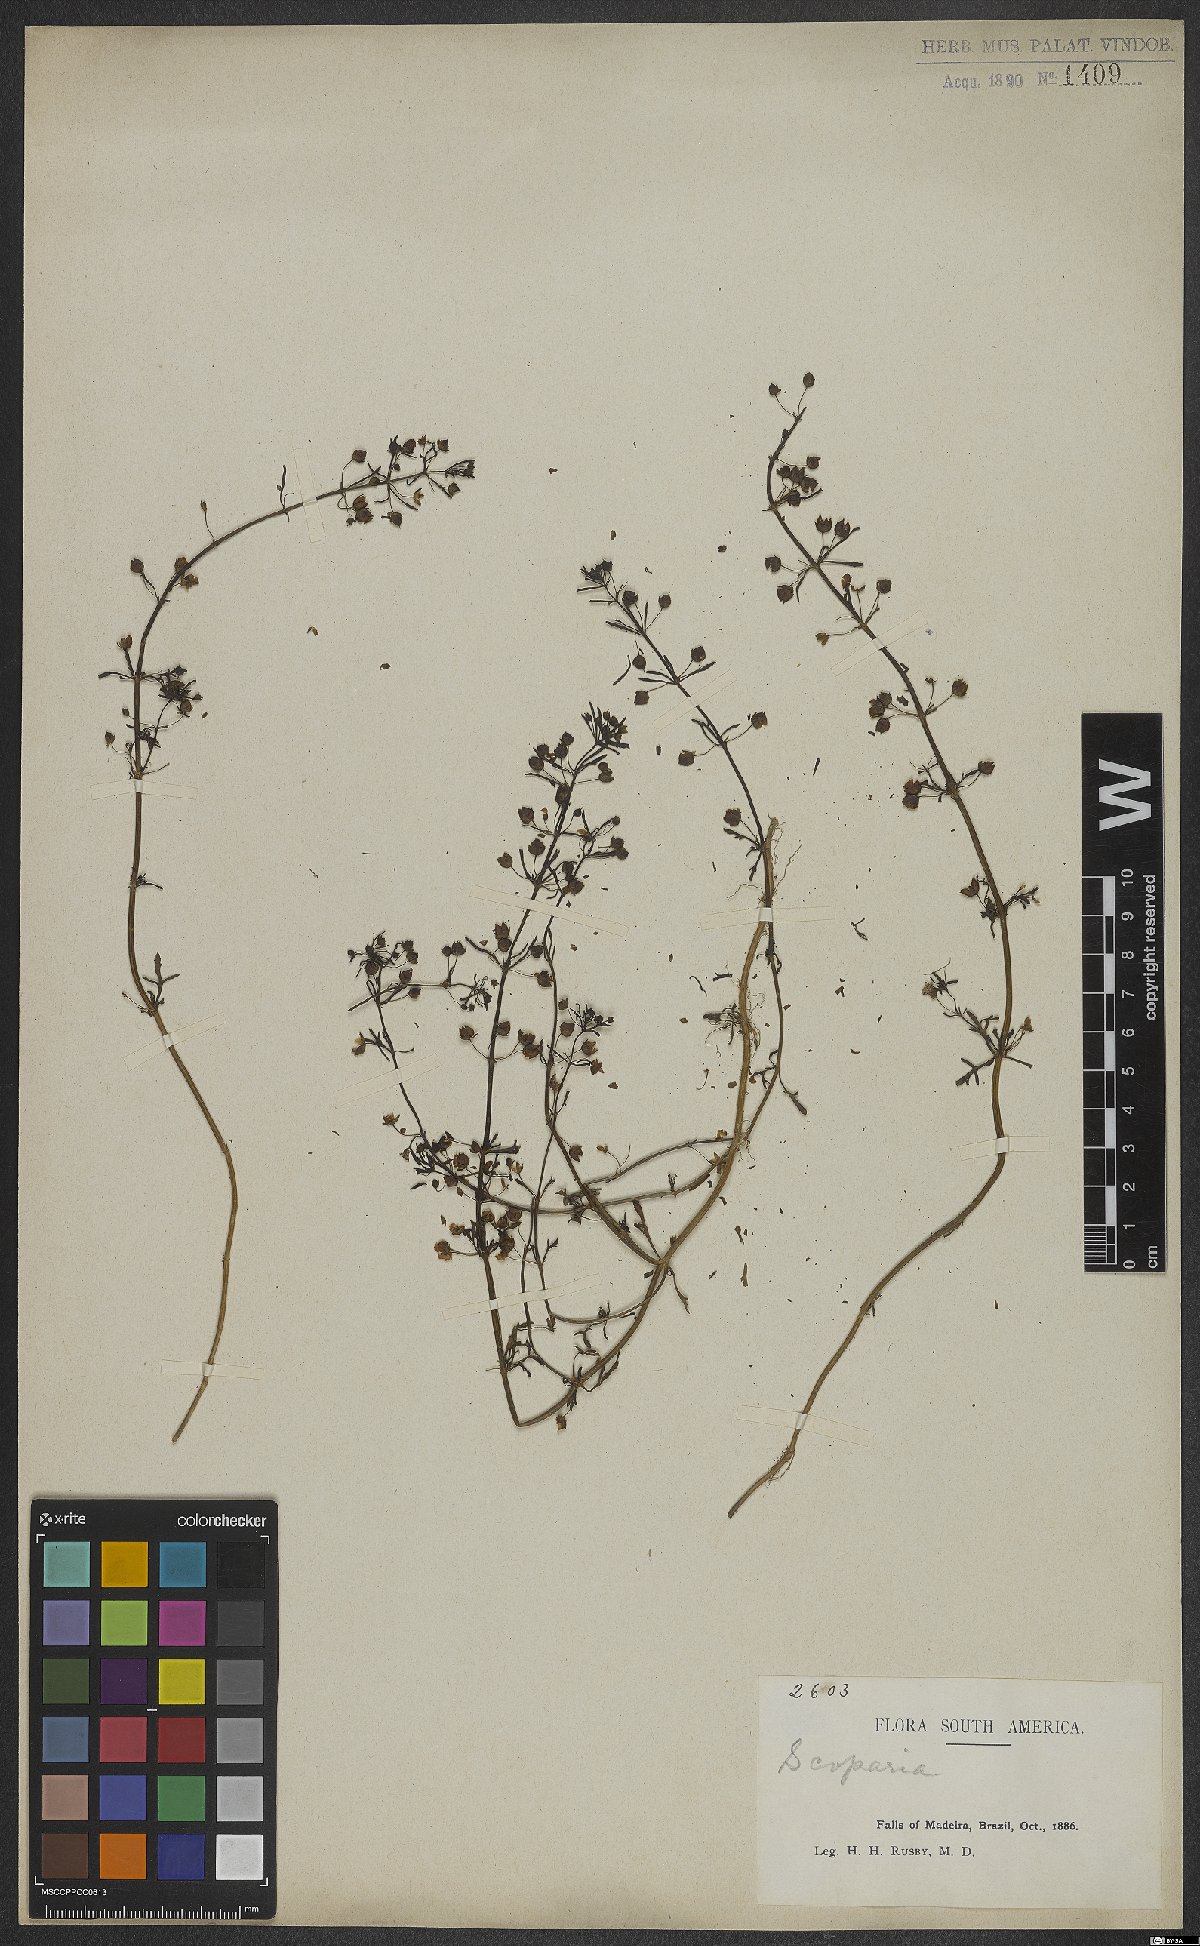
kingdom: Plantae
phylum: Tracheophyta
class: Magnoliopsida
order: Lamiales
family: Plantaginaceae
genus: Scoparia
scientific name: Scoparia
